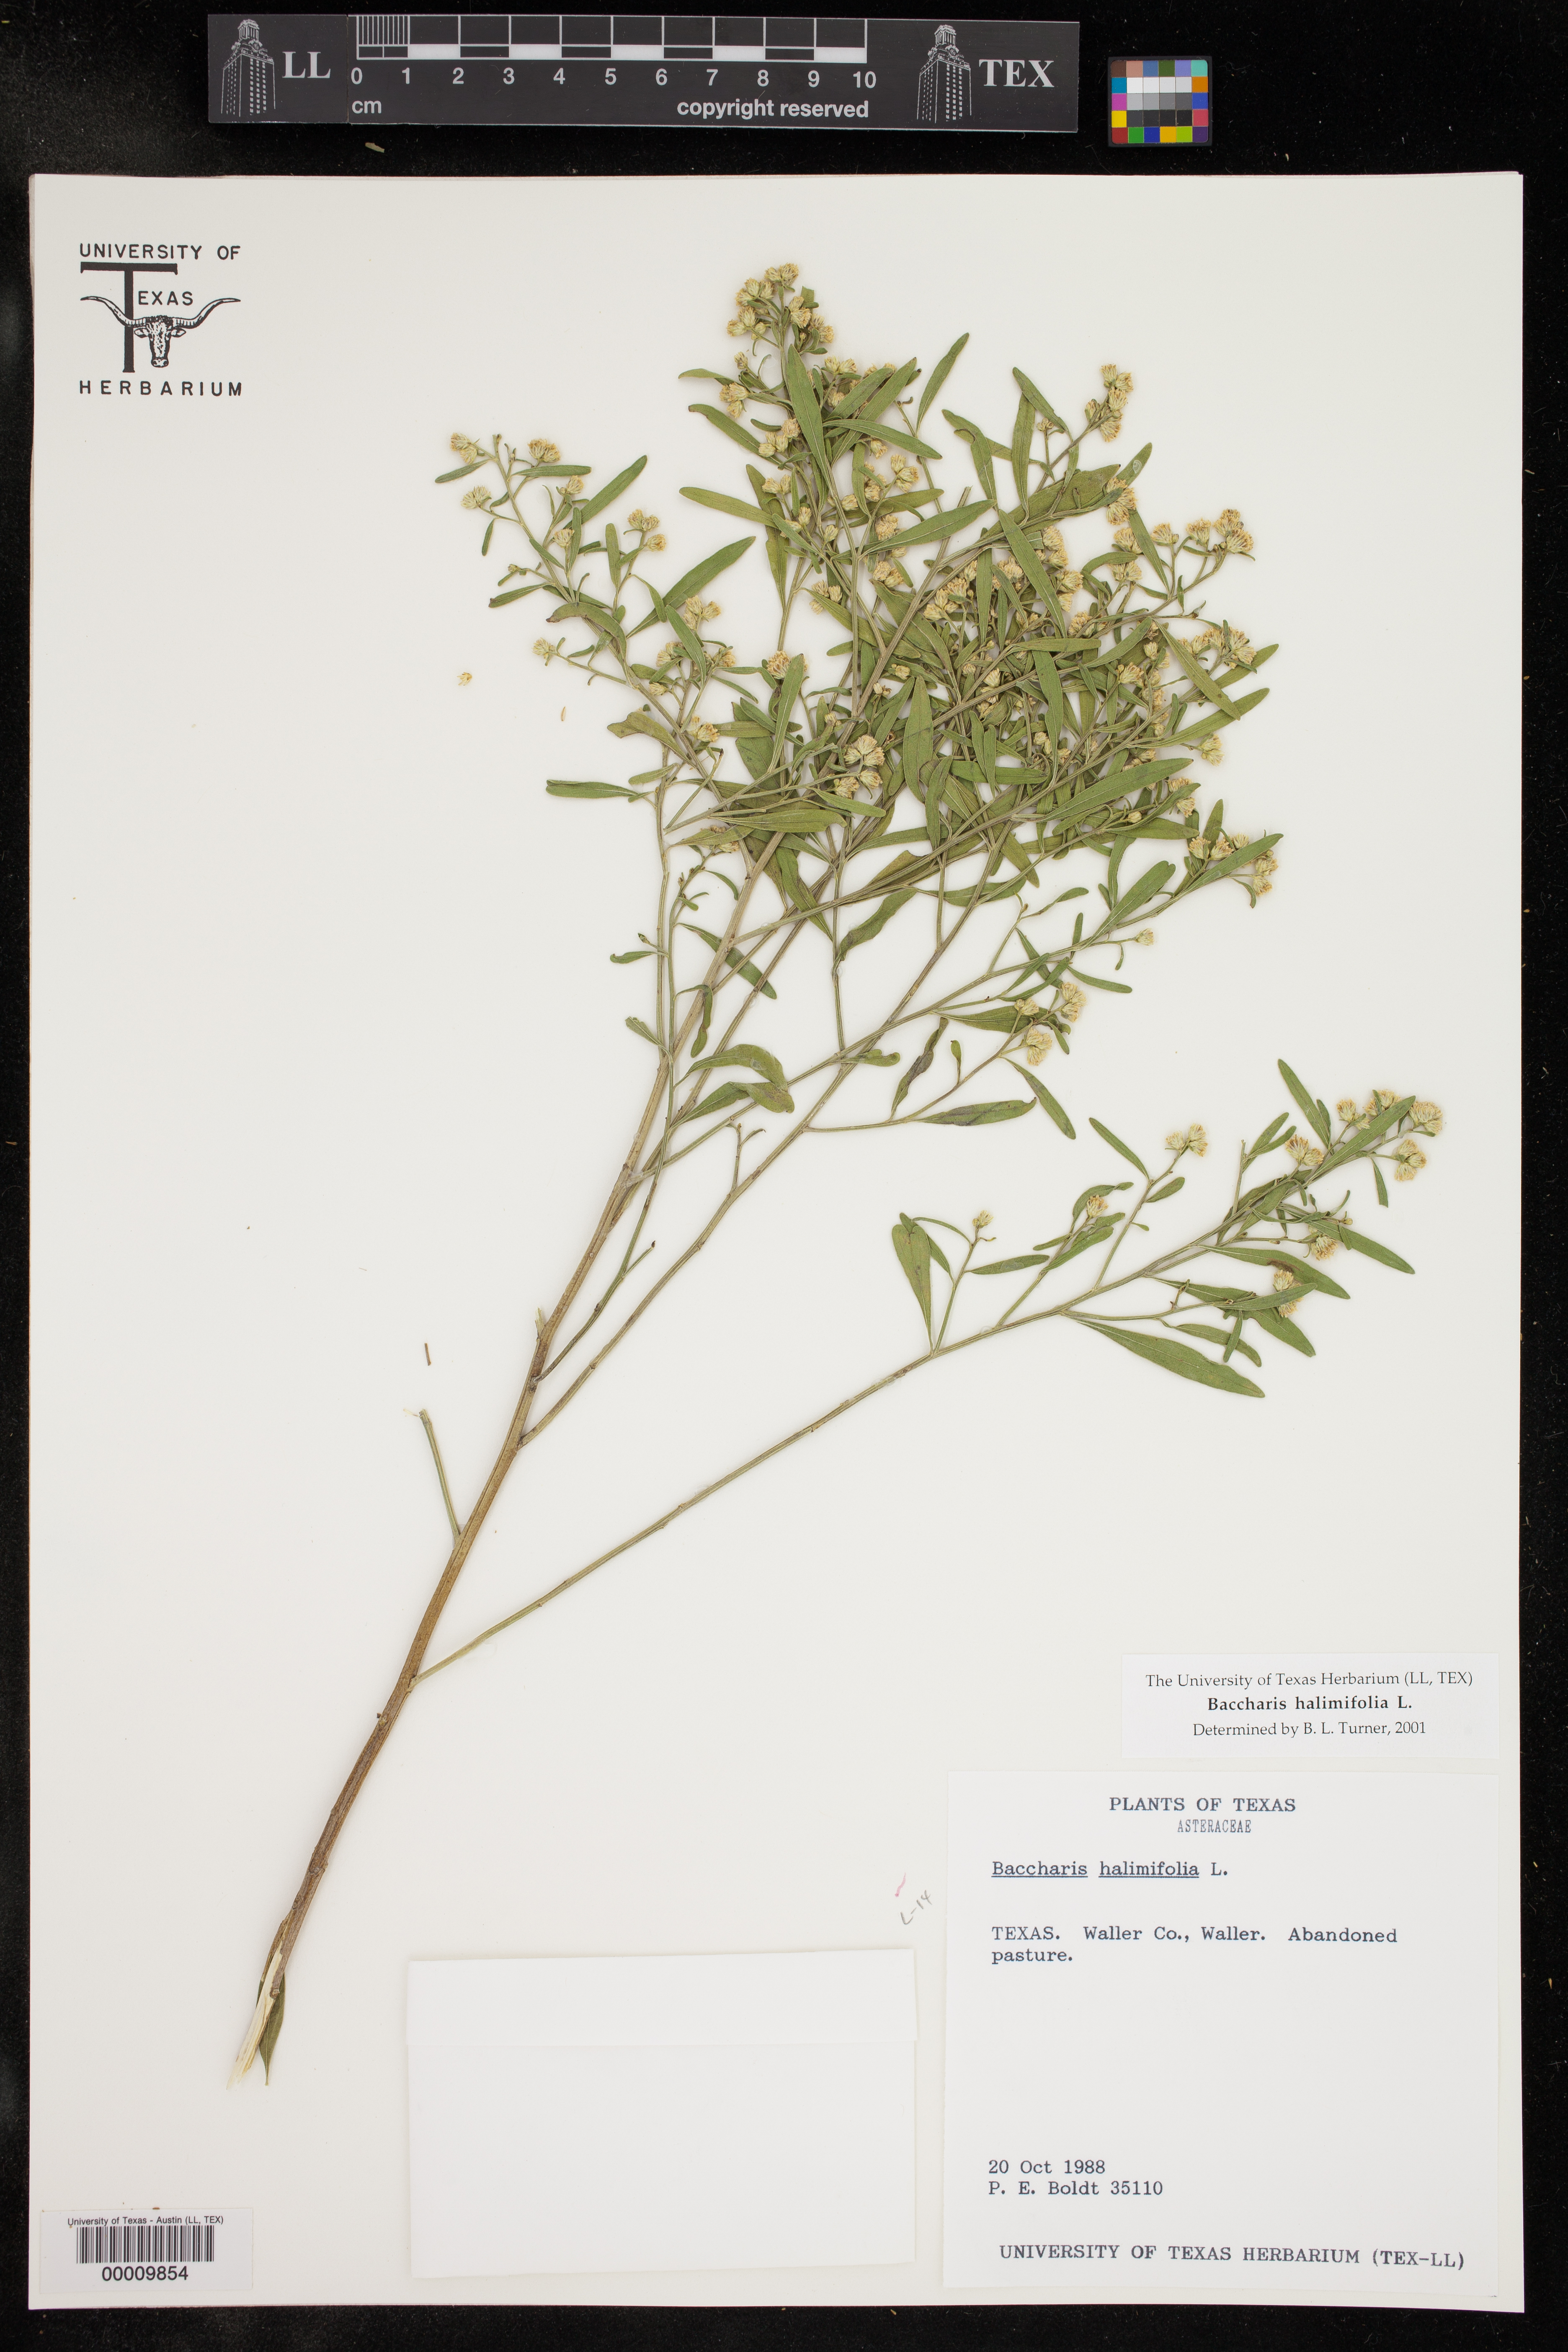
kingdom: Plantae
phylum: Tracheophyta
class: Magnoliopsida
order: Asterales
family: Asteraceae
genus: Baccharis
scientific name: Baccharis halimifolia
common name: Eastern baccharis
